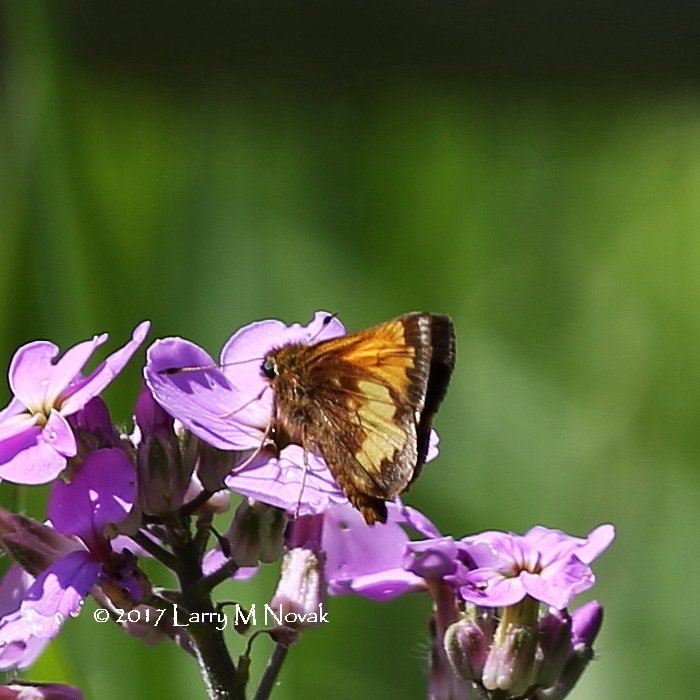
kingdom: Animalia
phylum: Arthropoda
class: Insecta
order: Lepidoptera
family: Hesperiidae
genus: Lon
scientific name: Lon hobomok
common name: Hobomok Skipper
